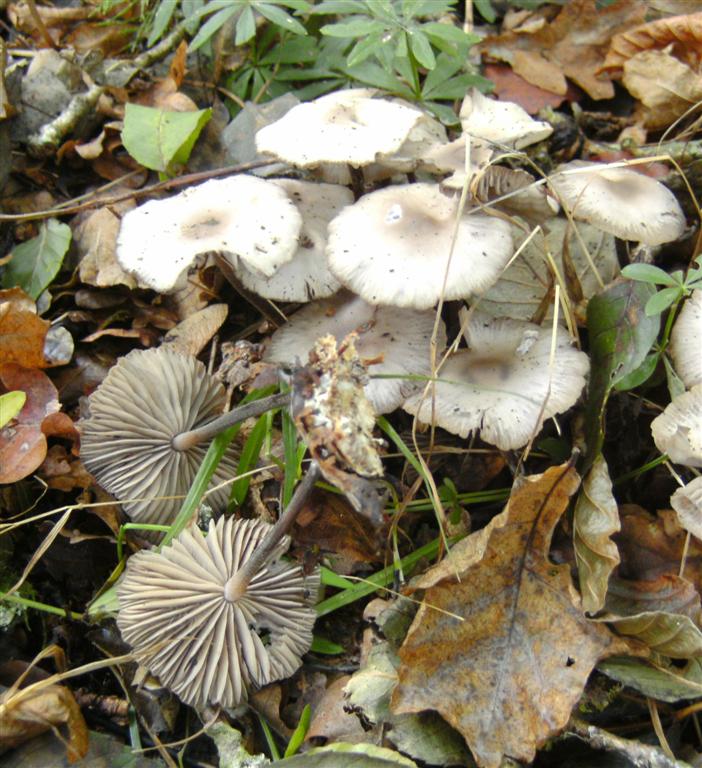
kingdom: Fungi
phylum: Basidiomycota
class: Agaricomycetes
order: Agaricales
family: Marasmiaceae
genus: Marasmius
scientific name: Marasmius wynneae
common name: hvælvet bruskhat
